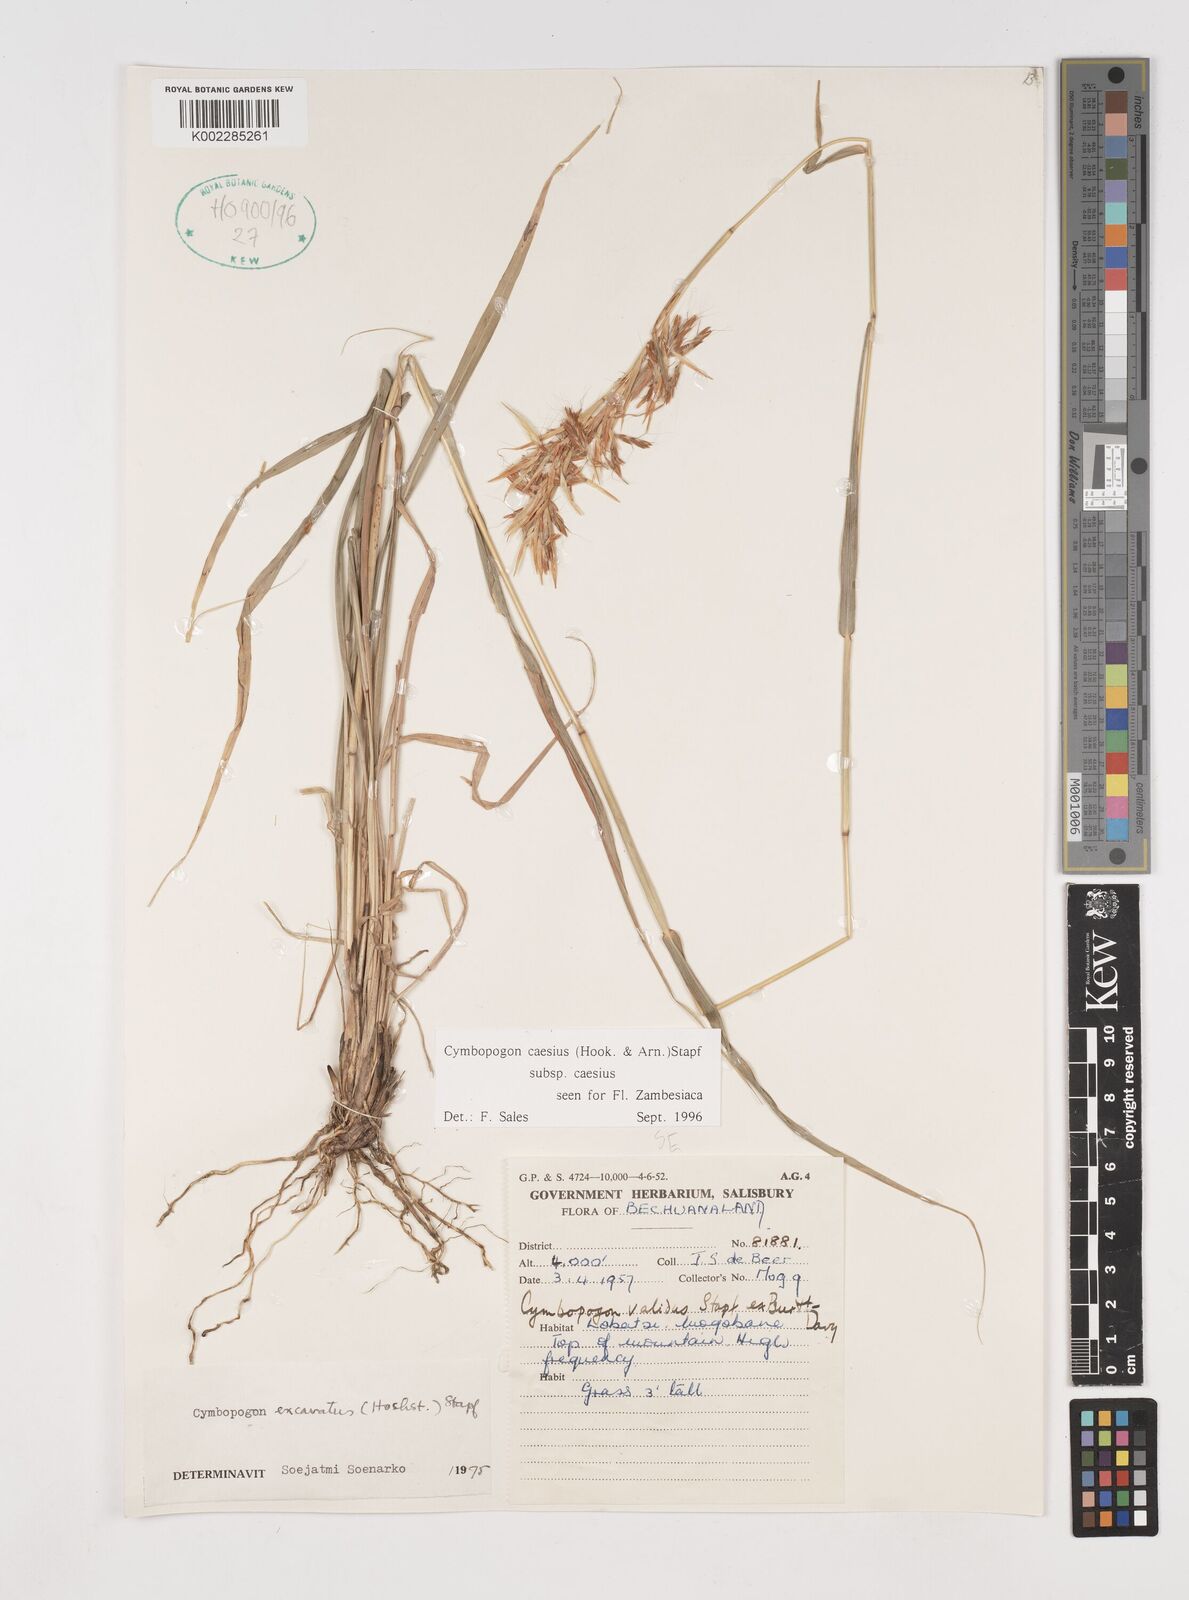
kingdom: Plantae
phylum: Tracheophyta
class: Liliopsida
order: Poales
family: Poaceae
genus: Cymbopogon
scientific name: Cymbopogon caesius
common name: Kachi grass
